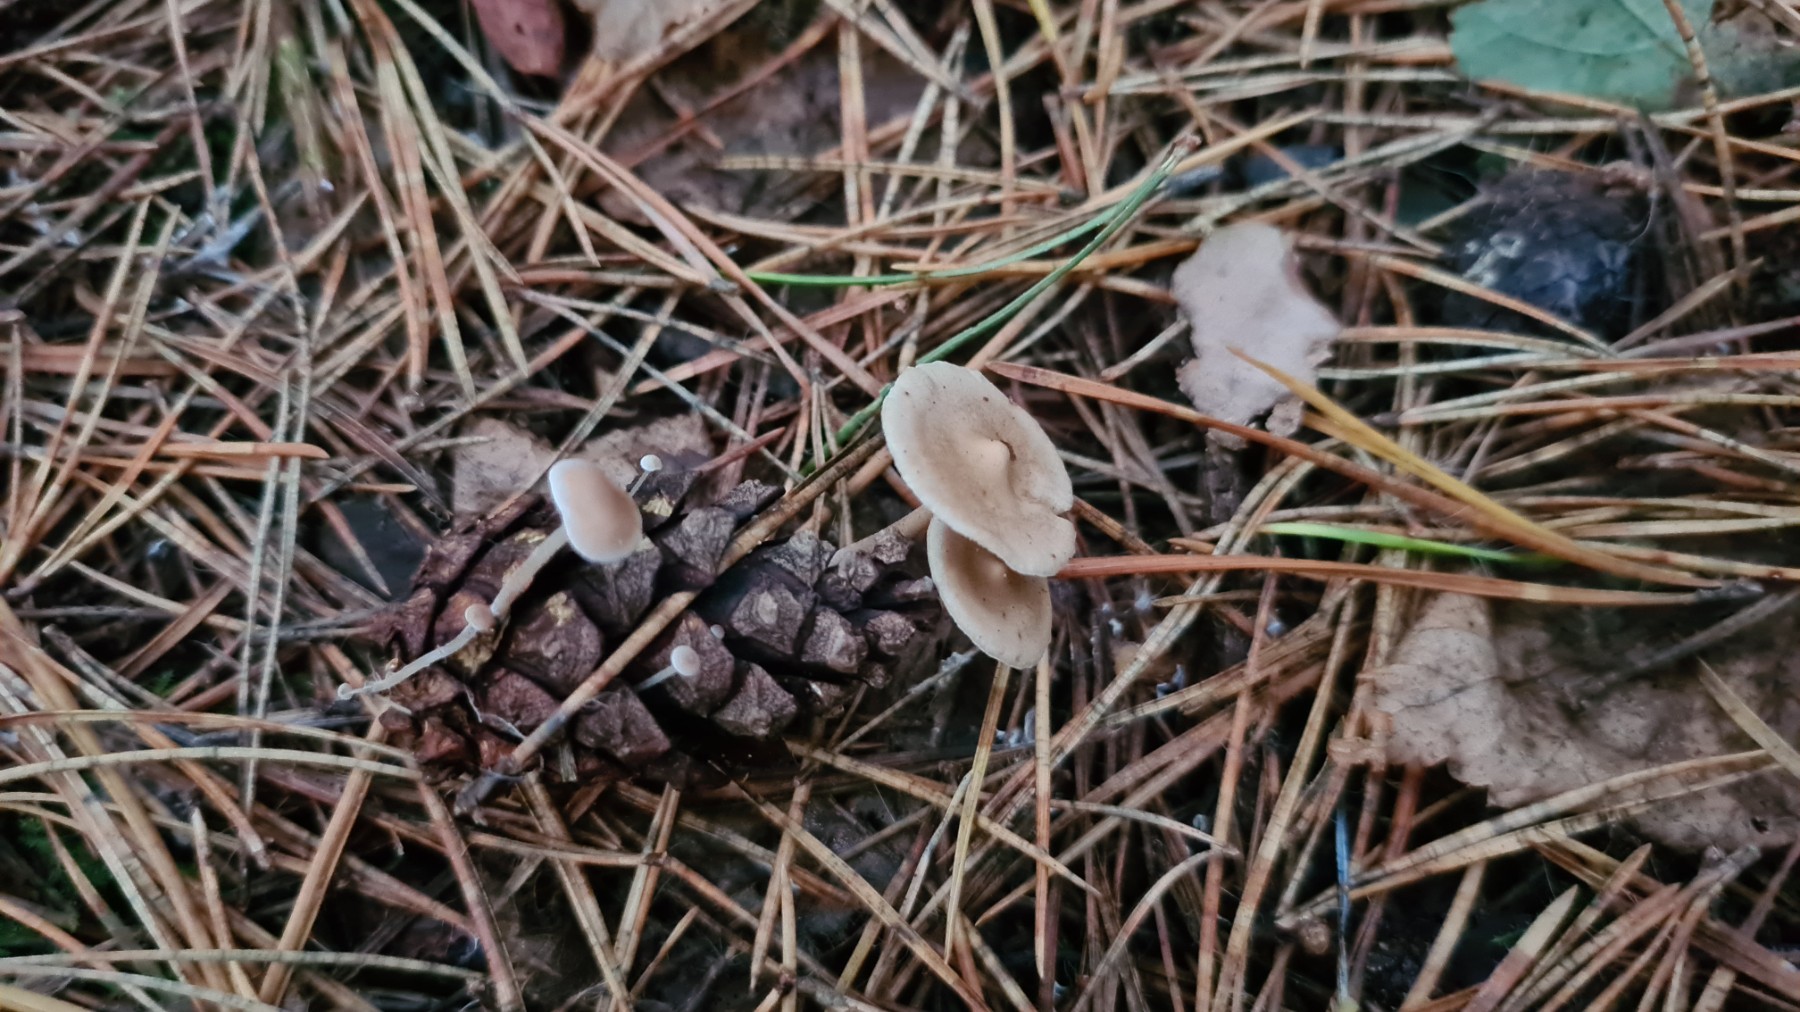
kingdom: Fungi
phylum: Basidiomycota
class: Agaricomycetes
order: Agaricales
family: Marasmiaceae
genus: Baeospora
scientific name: Baeospora myosura
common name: koglebruskhat
